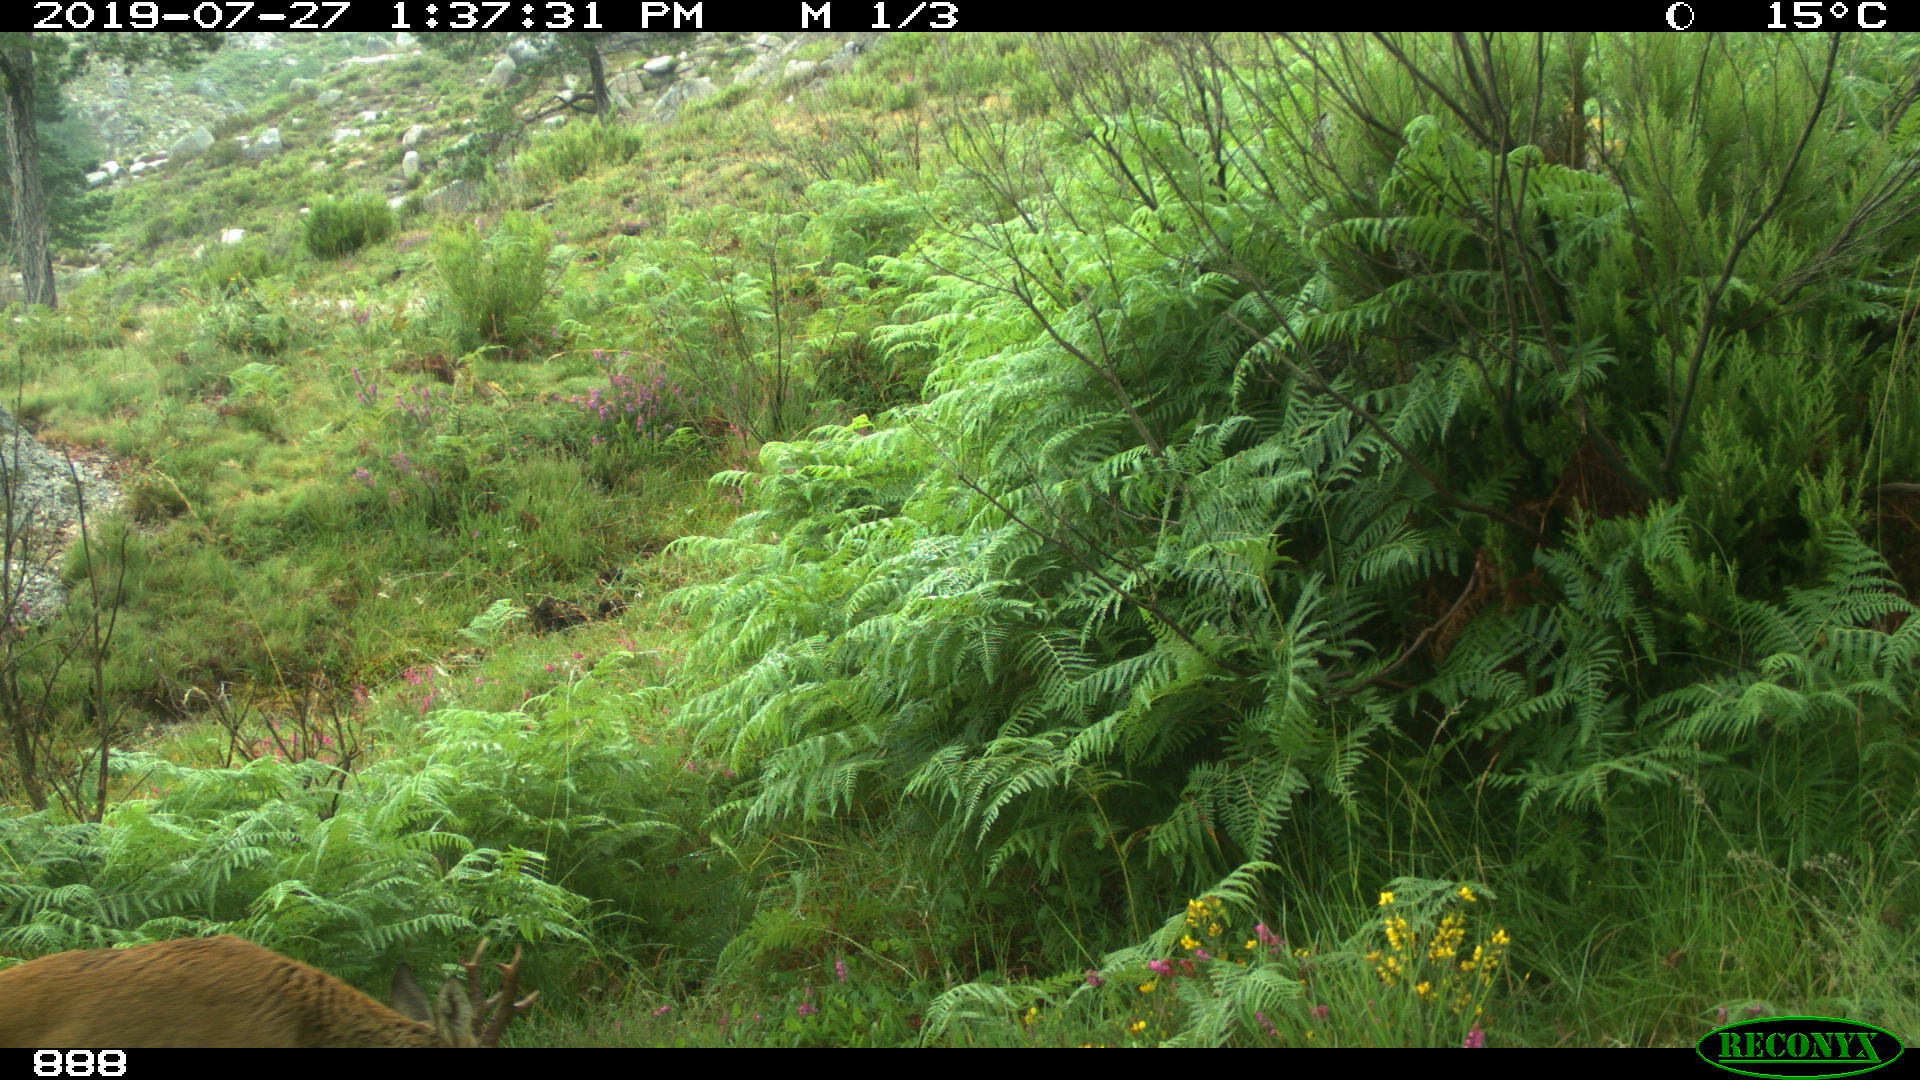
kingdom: Animalia
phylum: Chordata
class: Mammalia
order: Artiodactyla
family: Cervidae
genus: Capreolus
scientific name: Capreolus capreolus
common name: Western roe deer
